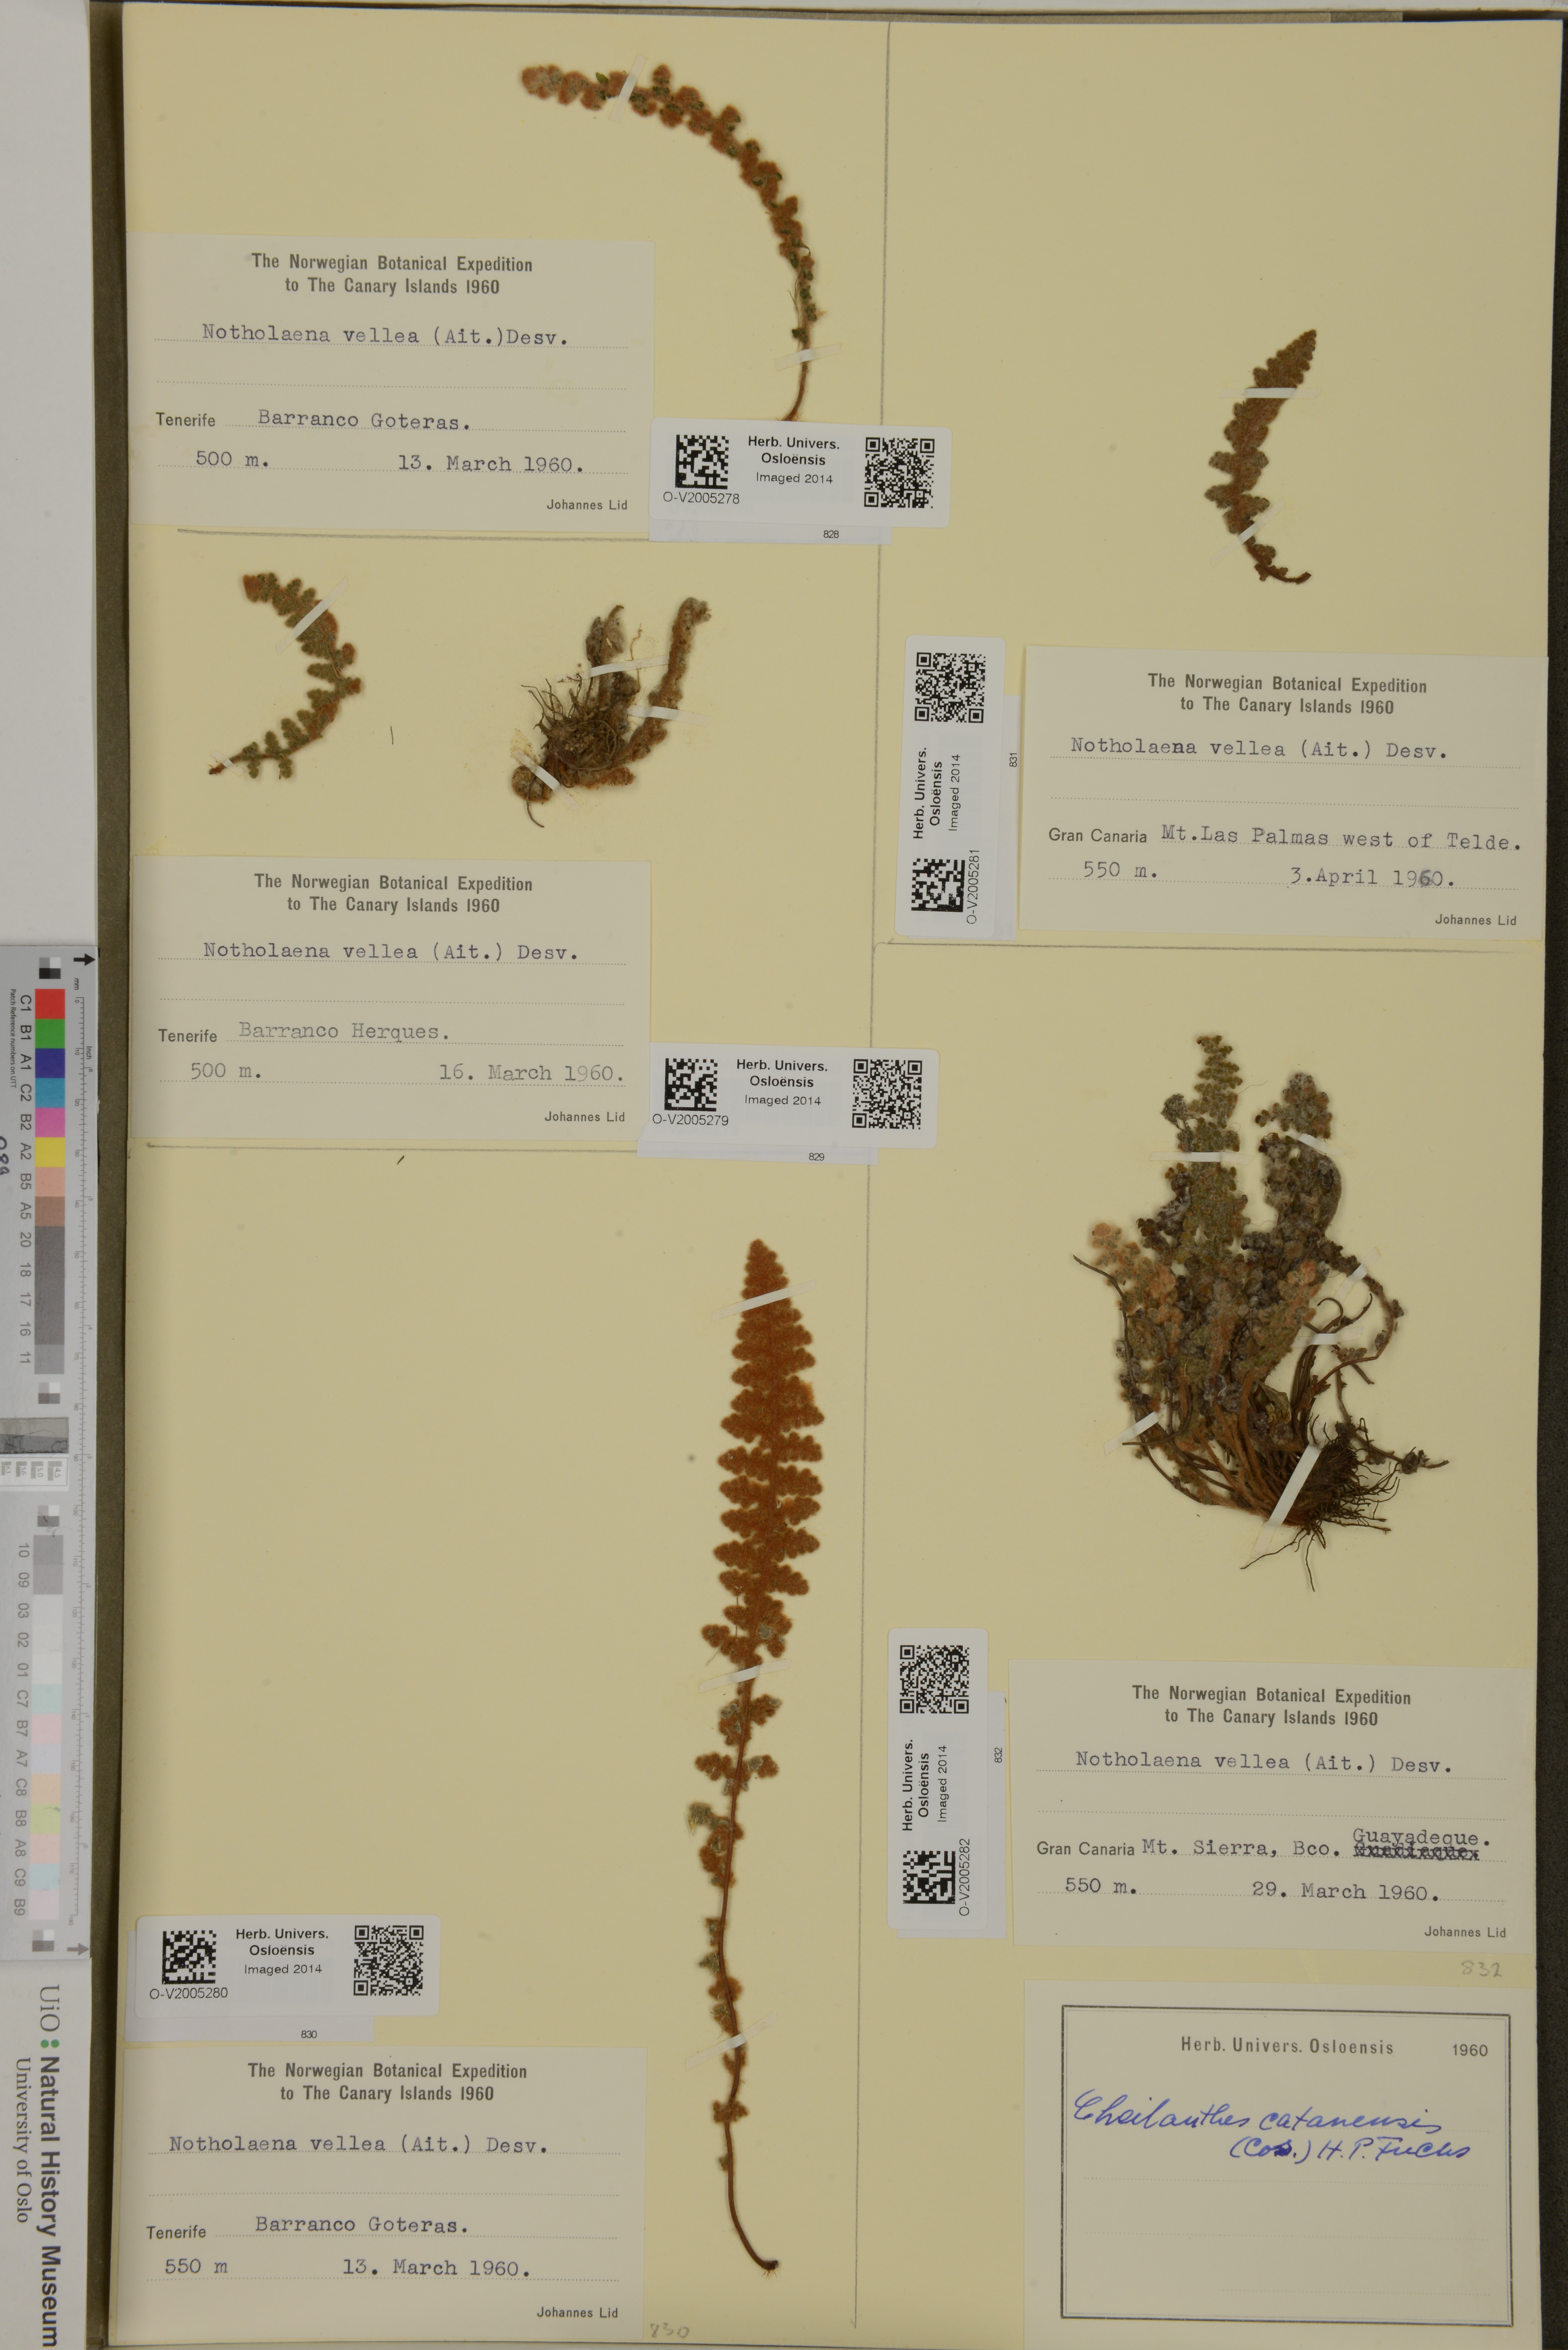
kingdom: Plantae
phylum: Tracheophyta
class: Polypodiopsida
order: Polypodiales
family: Pteridaceae
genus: Cosentinia
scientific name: Cosentinia vellea
